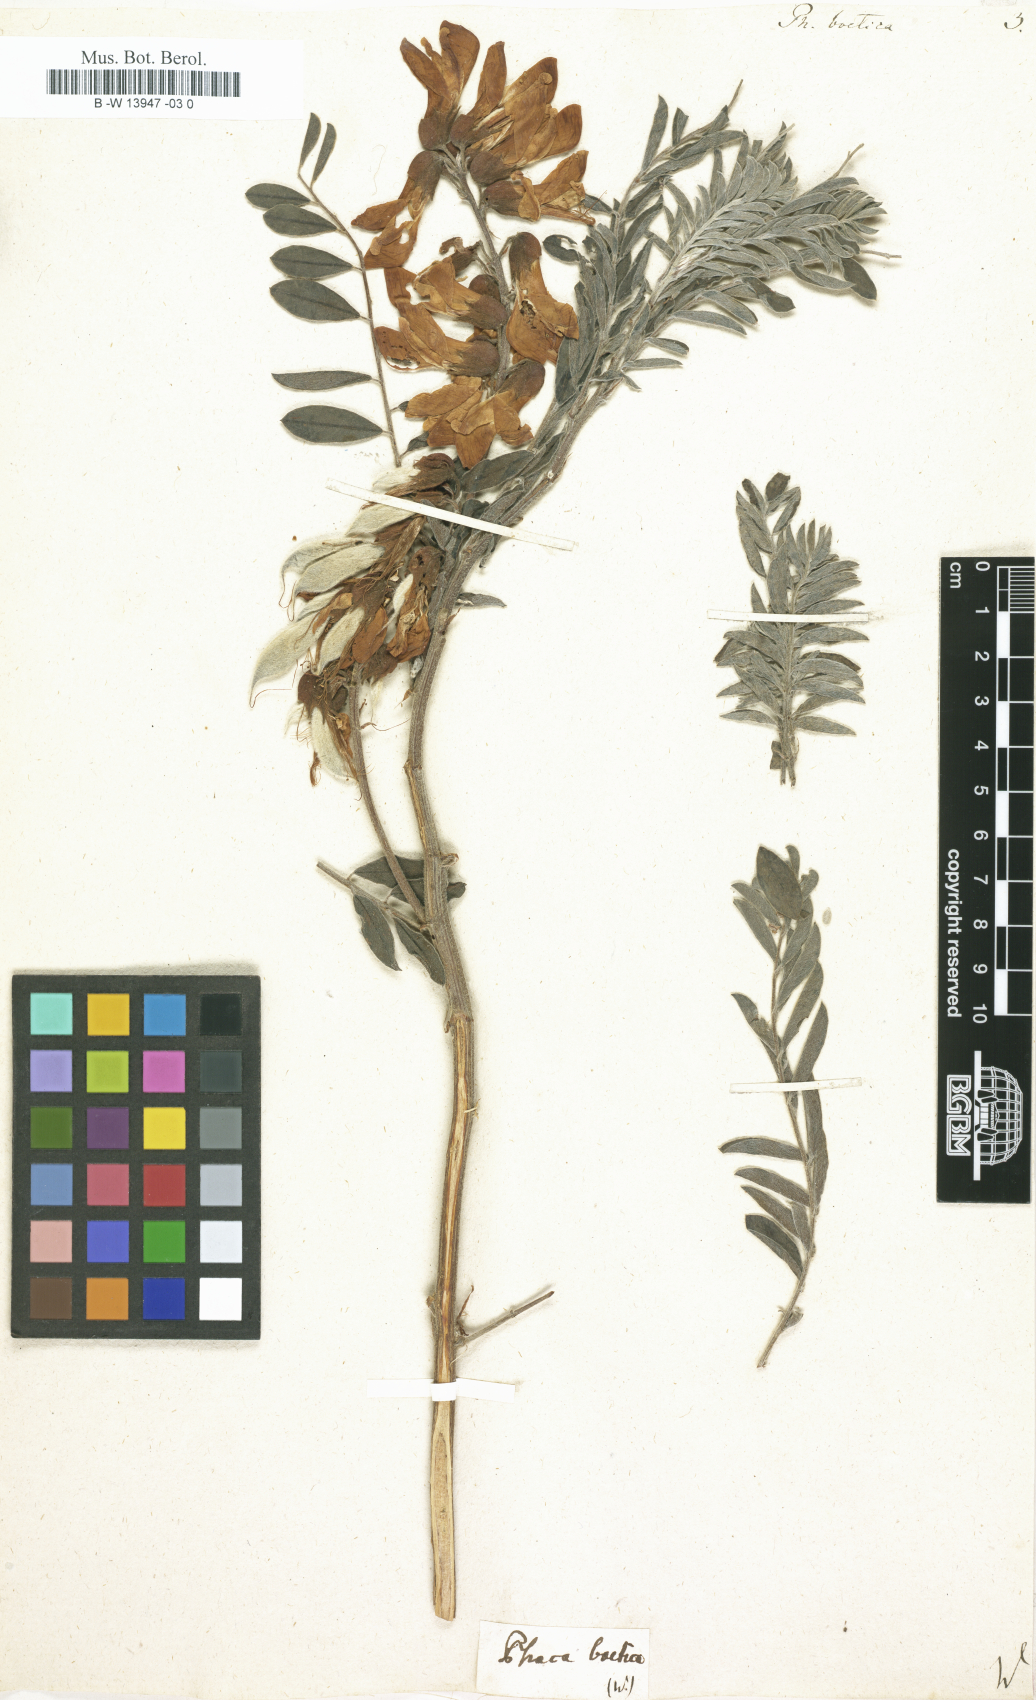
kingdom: Plantae
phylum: Tracheophyta
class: Magnoliopsida
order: Fabales
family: Fabaceae
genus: Erophaca
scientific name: Erophaca baetica
